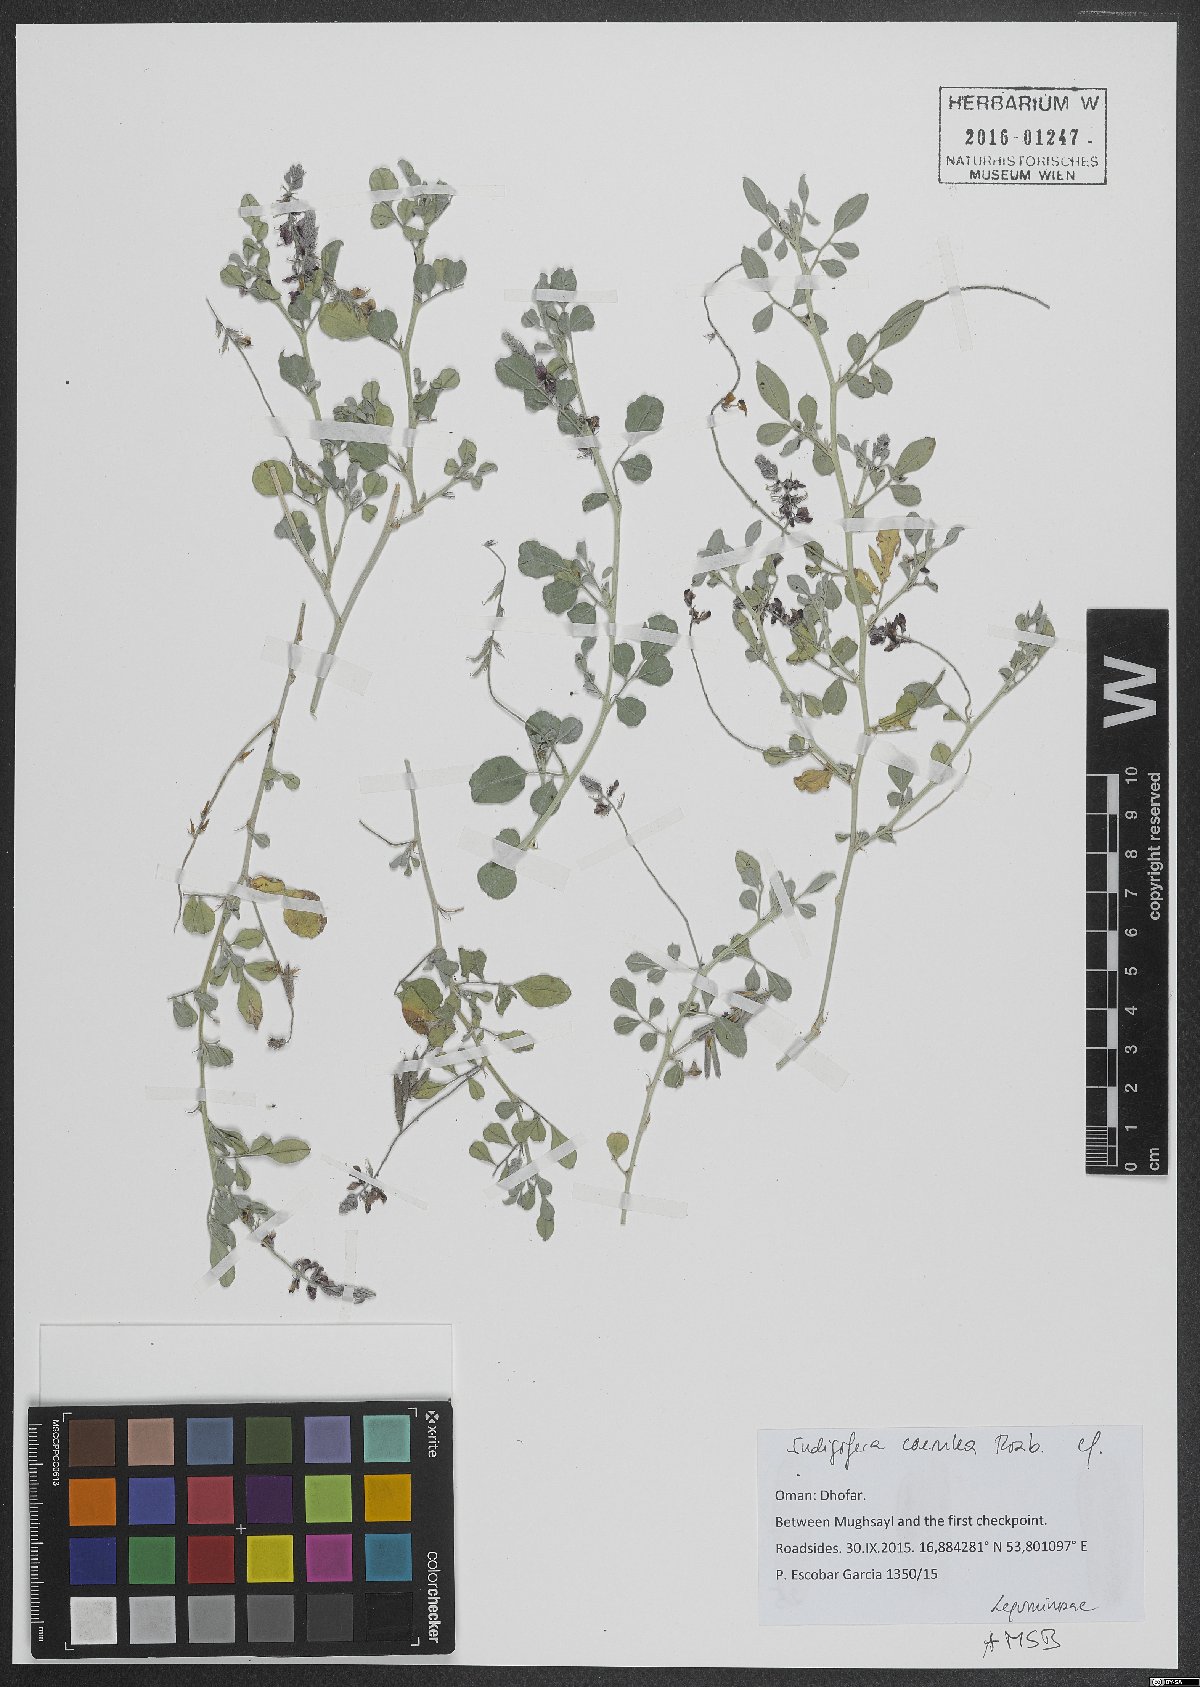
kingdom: Plantae
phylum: Tracheophyta
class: Magnoliopsida
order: Fabales
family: Fabaceae
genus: Indigofera
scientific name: Indigofera coerulea
